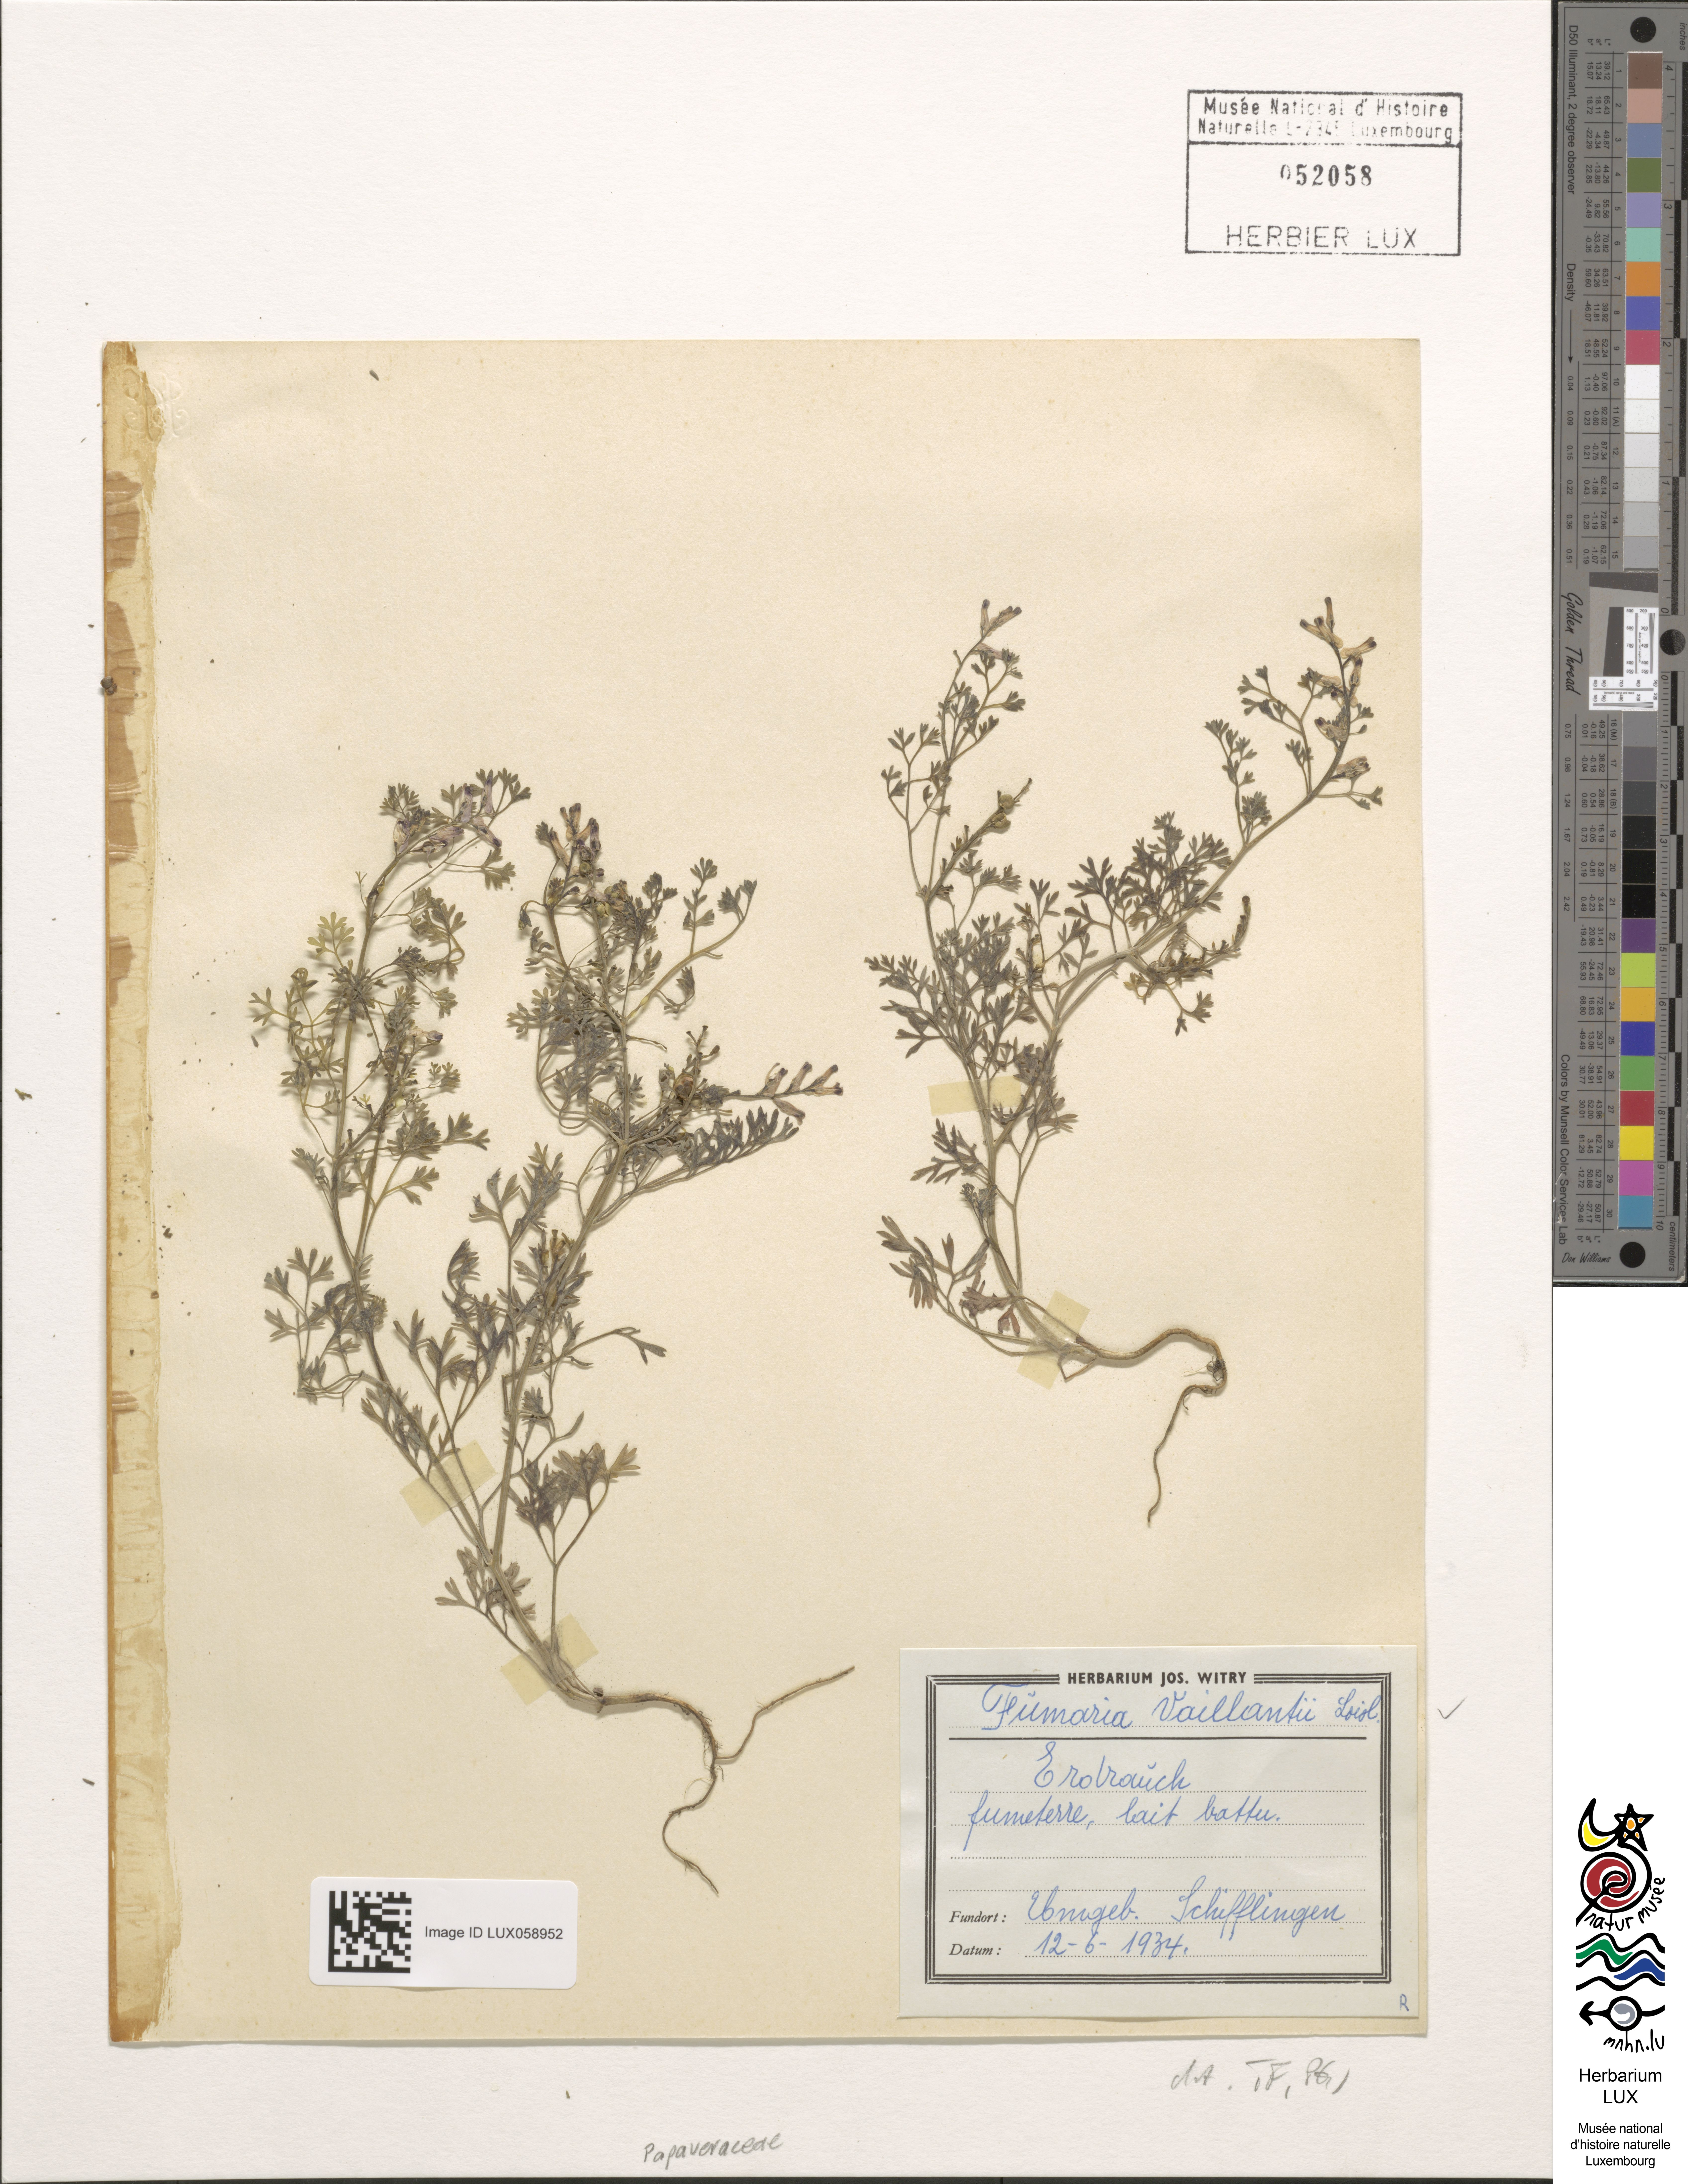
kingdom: Plantae
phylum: Tracheophyta
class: Magnoliopsida
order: Ranunculales
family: Papaveraceae
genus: Fumaria
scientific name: Fumaria vaillantii
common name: Few-flowered fumitory
